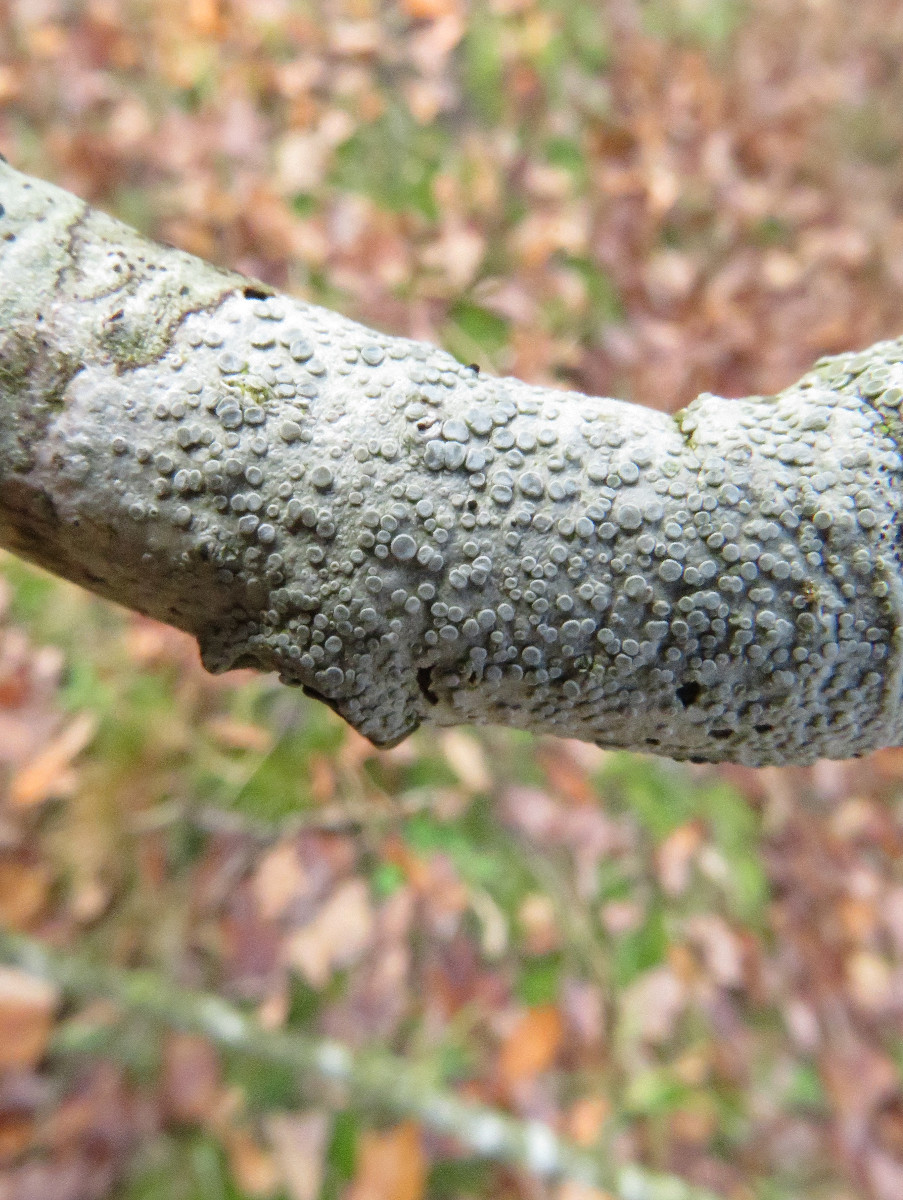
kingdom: Fungi
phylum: Ascomycota
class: Lecanoromycetes
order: Lecanorales
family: Lecanoraceae
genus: Glaucomaria
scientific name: Glaucomaria carpinea
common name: hviddugget kantskivelav
